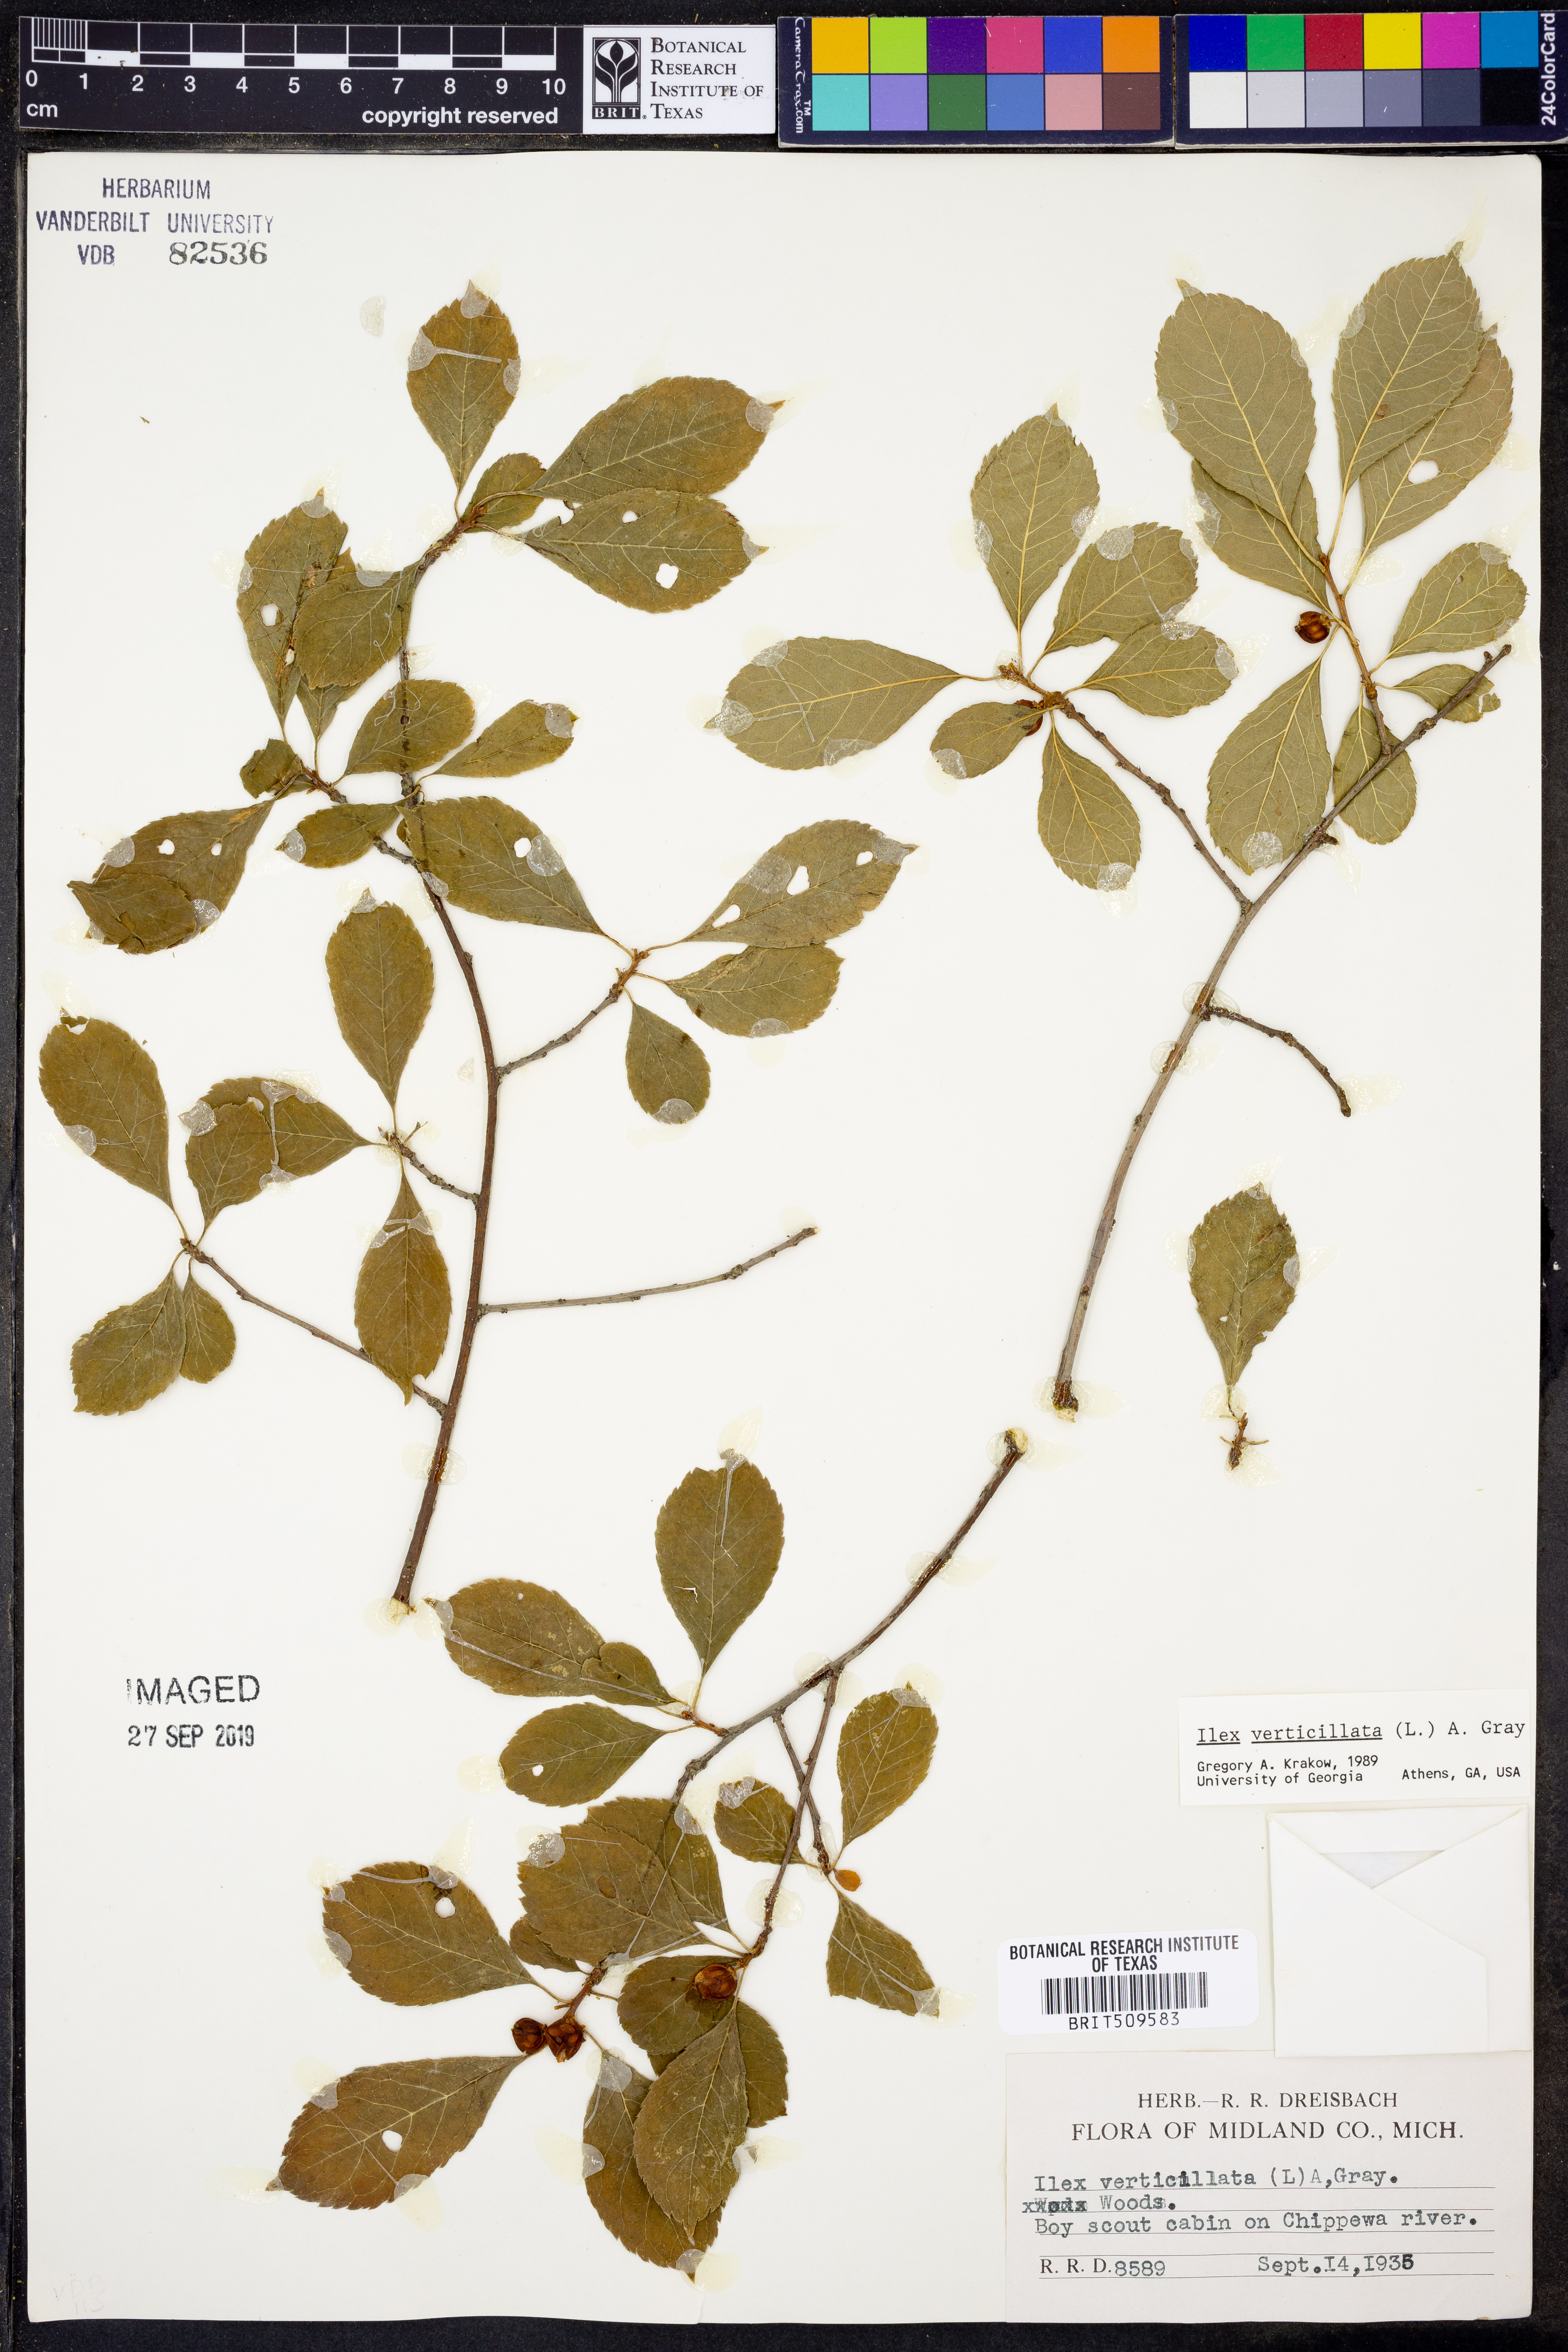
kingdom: Plantae
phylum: Tracheophyta
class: Magnoliopsida
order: Aquifoliales
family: Aquifoliaceae
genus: Ilex
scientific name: Ilex verticillata
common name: Virginia winterberry
